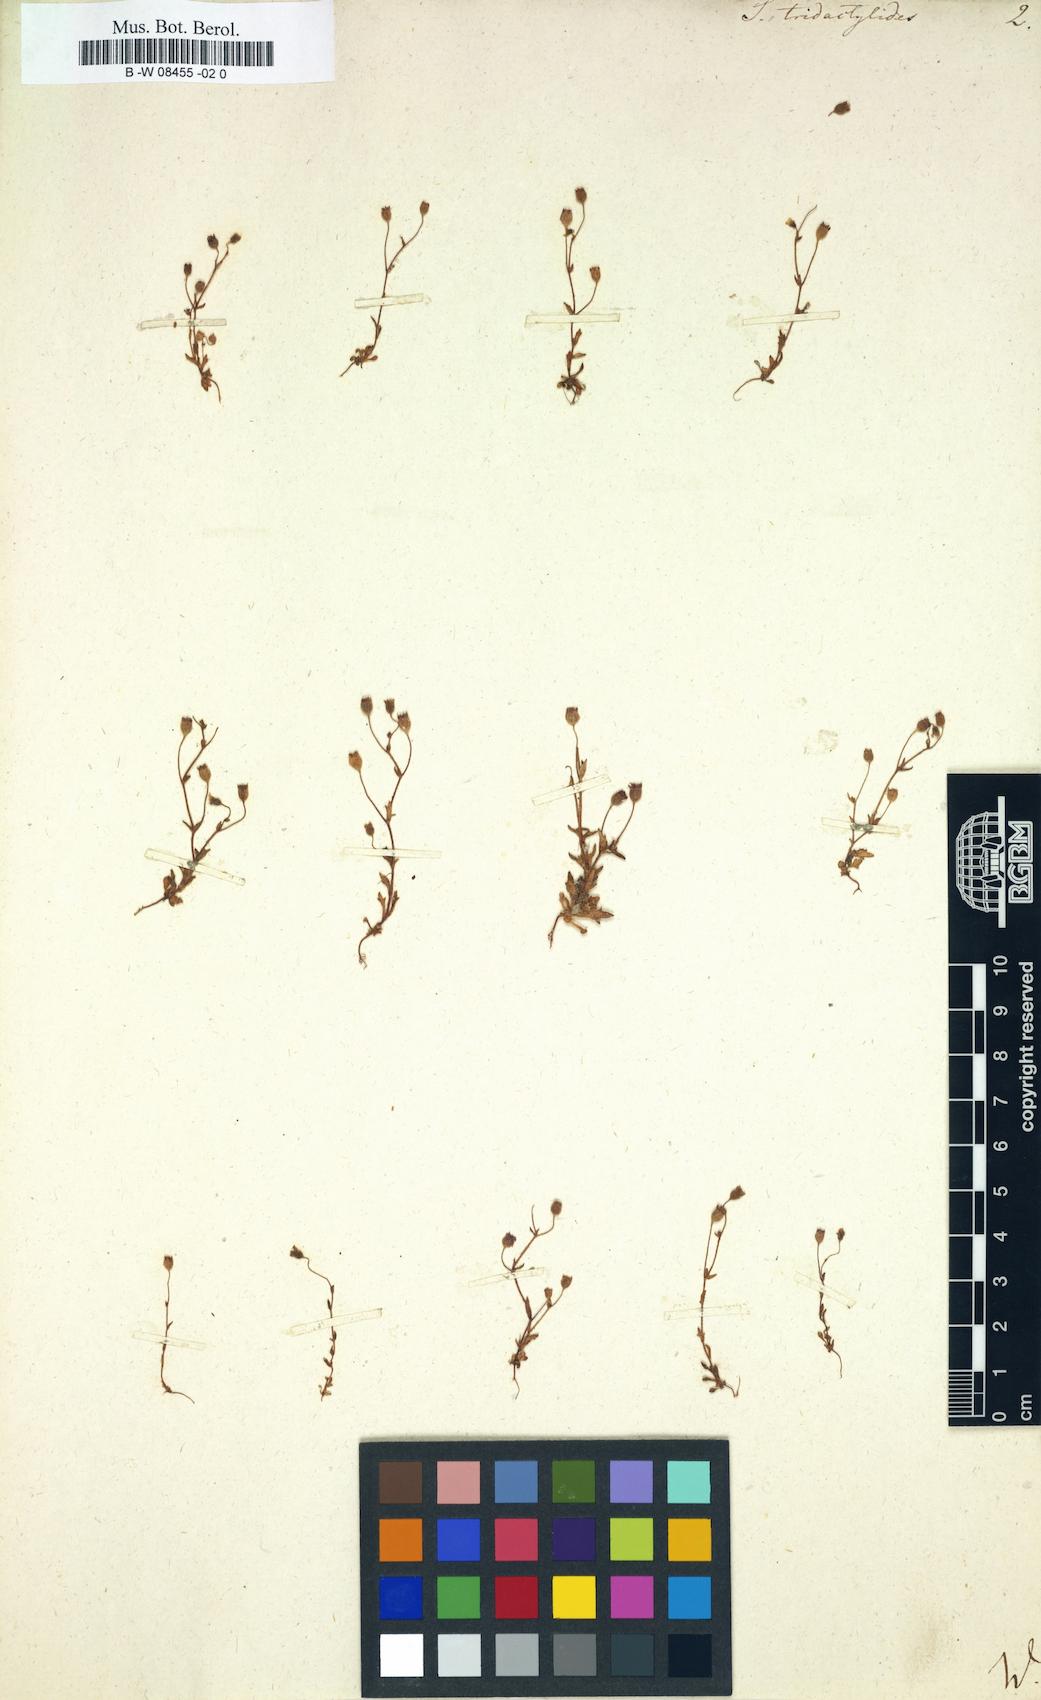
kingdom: Plantae
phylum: Tracheophyta
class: Magnoliopsida
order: Saxifragales
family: Saxifragaceae
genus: Saxifraga
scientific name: Saxifraga tridactylites
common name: Rue-leaved saxifrage
